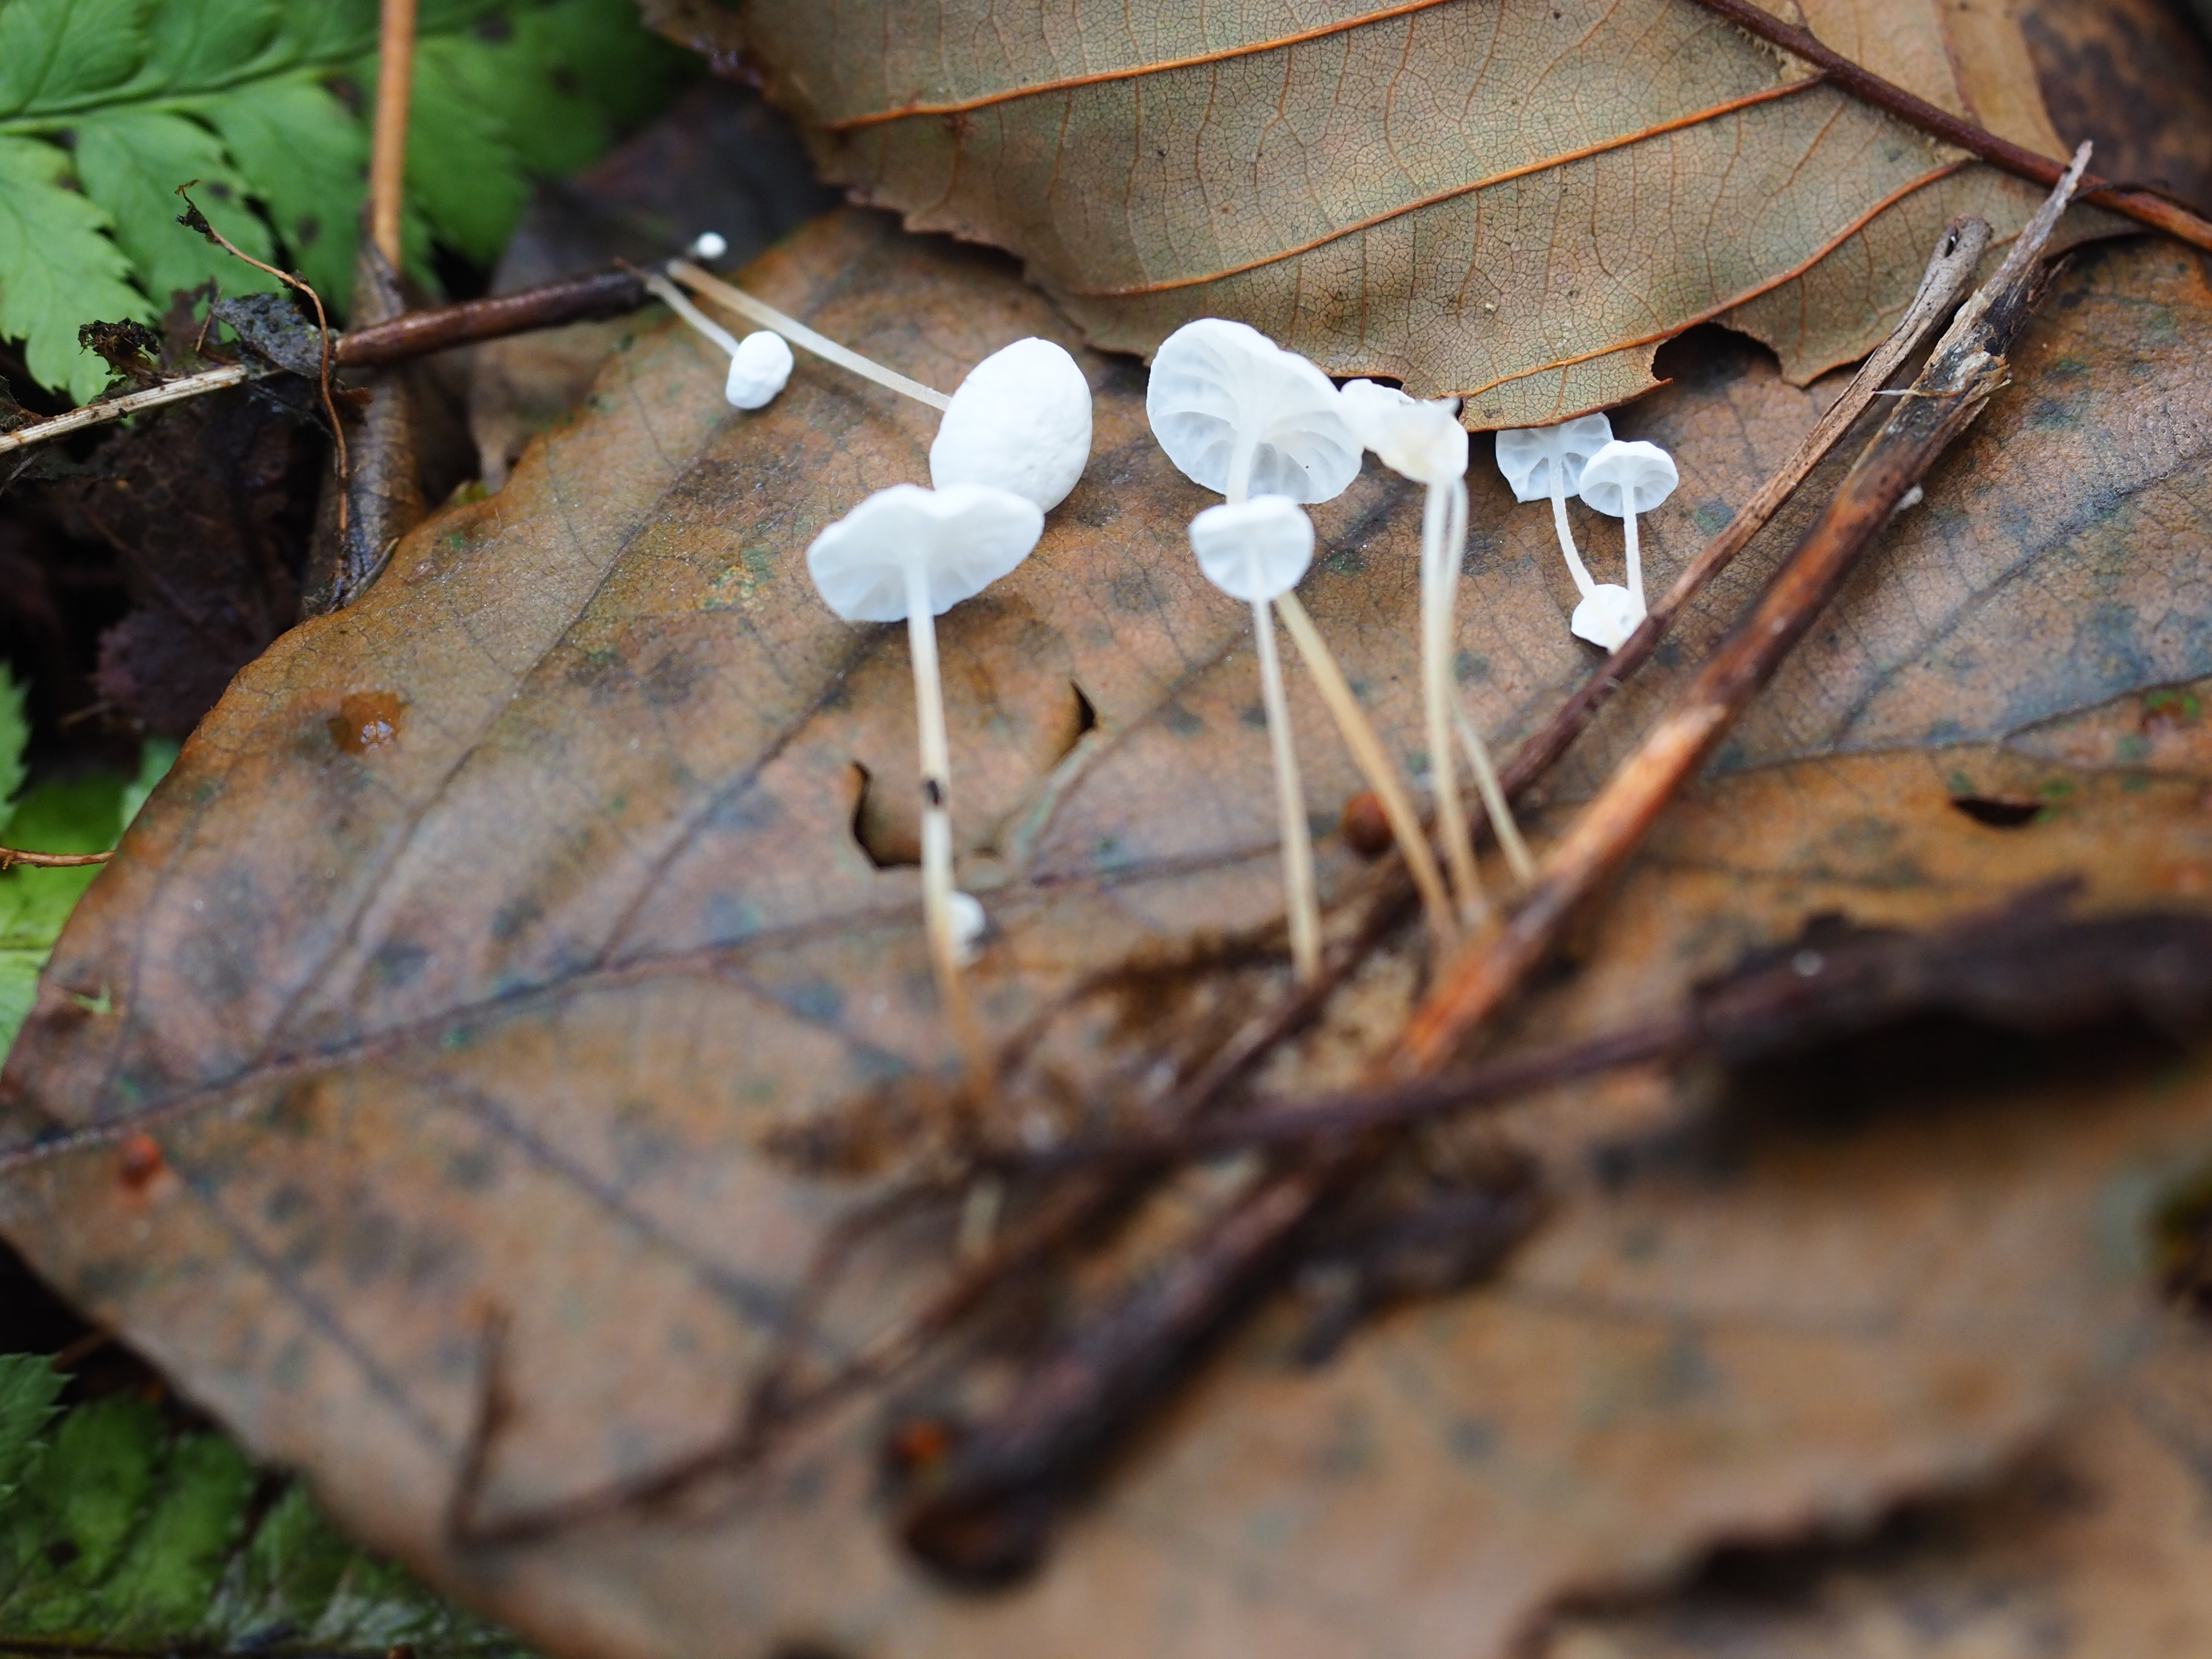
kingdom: Fungi
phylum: Basidiomycota
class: Agaricomycetes
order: Agaricales
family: Marasmiaceae
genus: Marasmius
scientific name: Marasmius epiphyllus
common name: Leaf parachute
